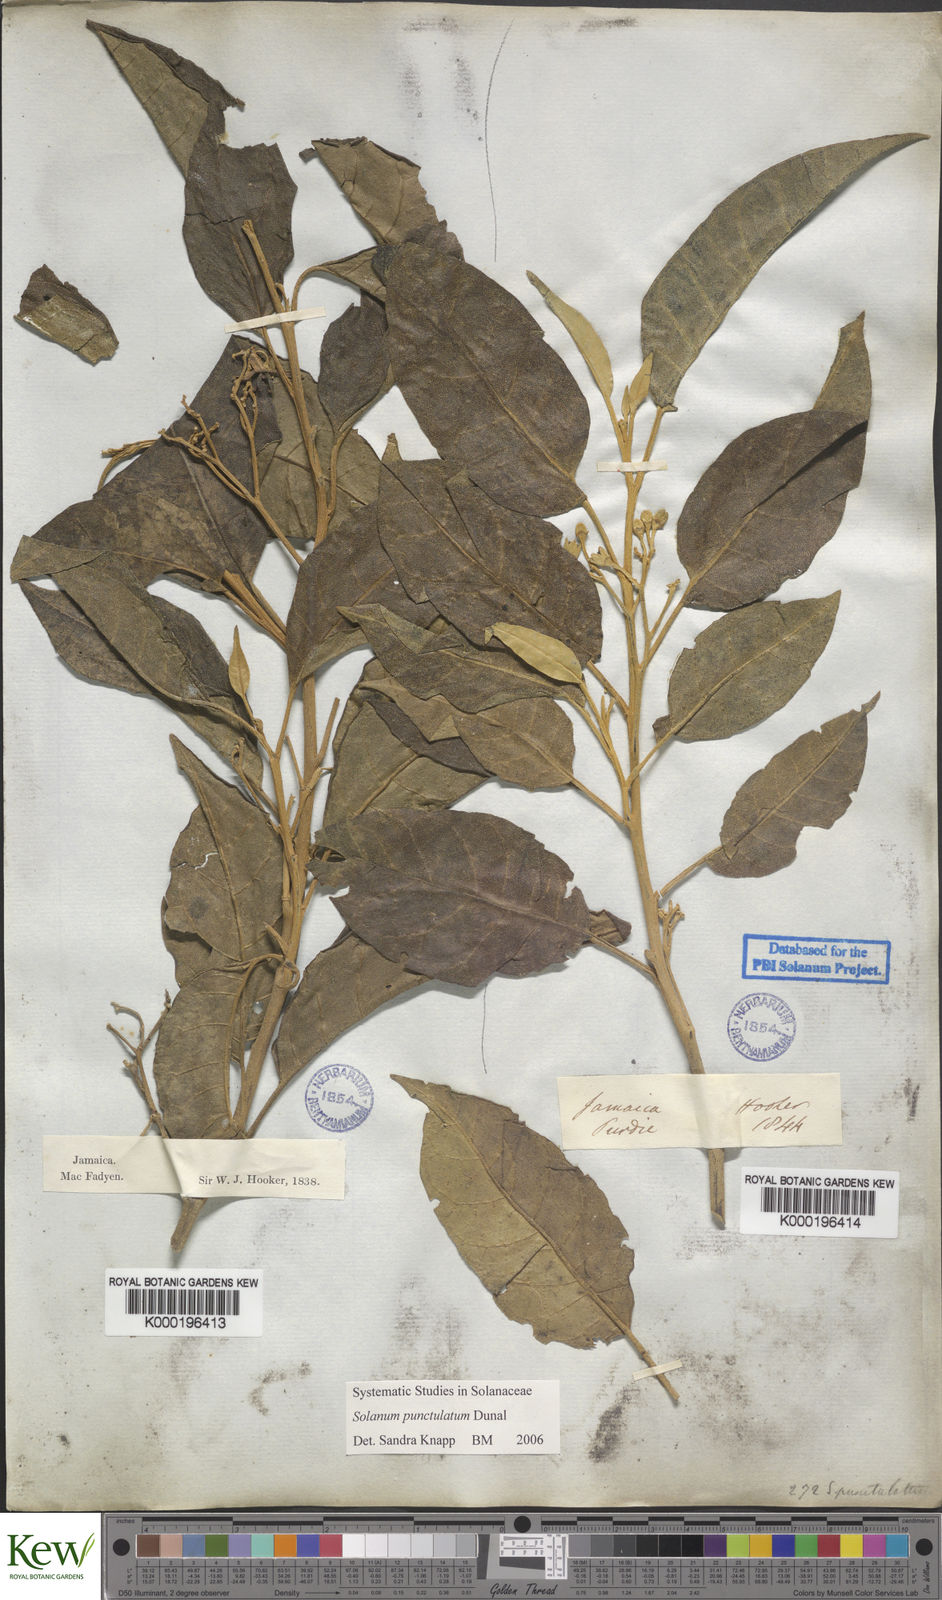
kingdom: Plantae
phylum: Tracheophyta
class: Magnoliopsida
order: Solanales
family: Solanaceae
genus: Solanum
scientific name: Solanum punctulatum
